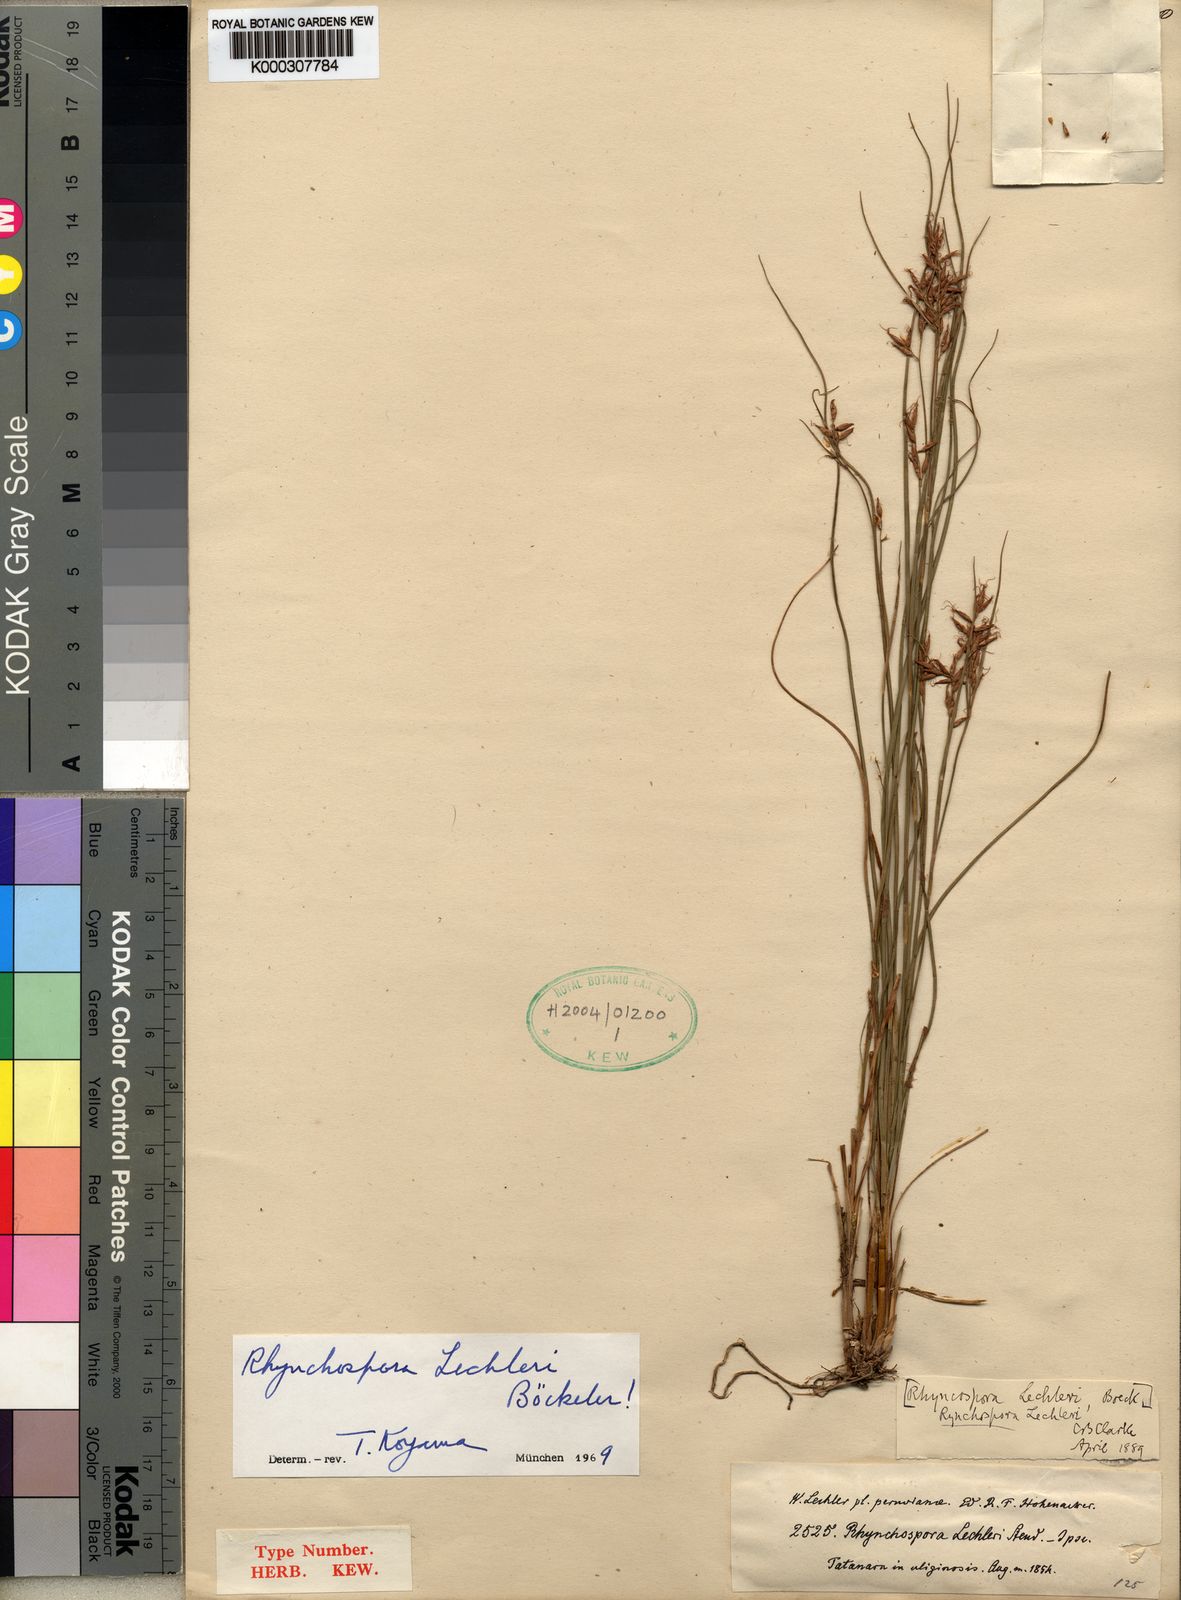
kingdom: Plantae
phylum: Tracheophyta
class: Liliopsida
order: Poales
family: Cyperaceae
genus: Rhynchospora
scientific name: Rhynchospora
